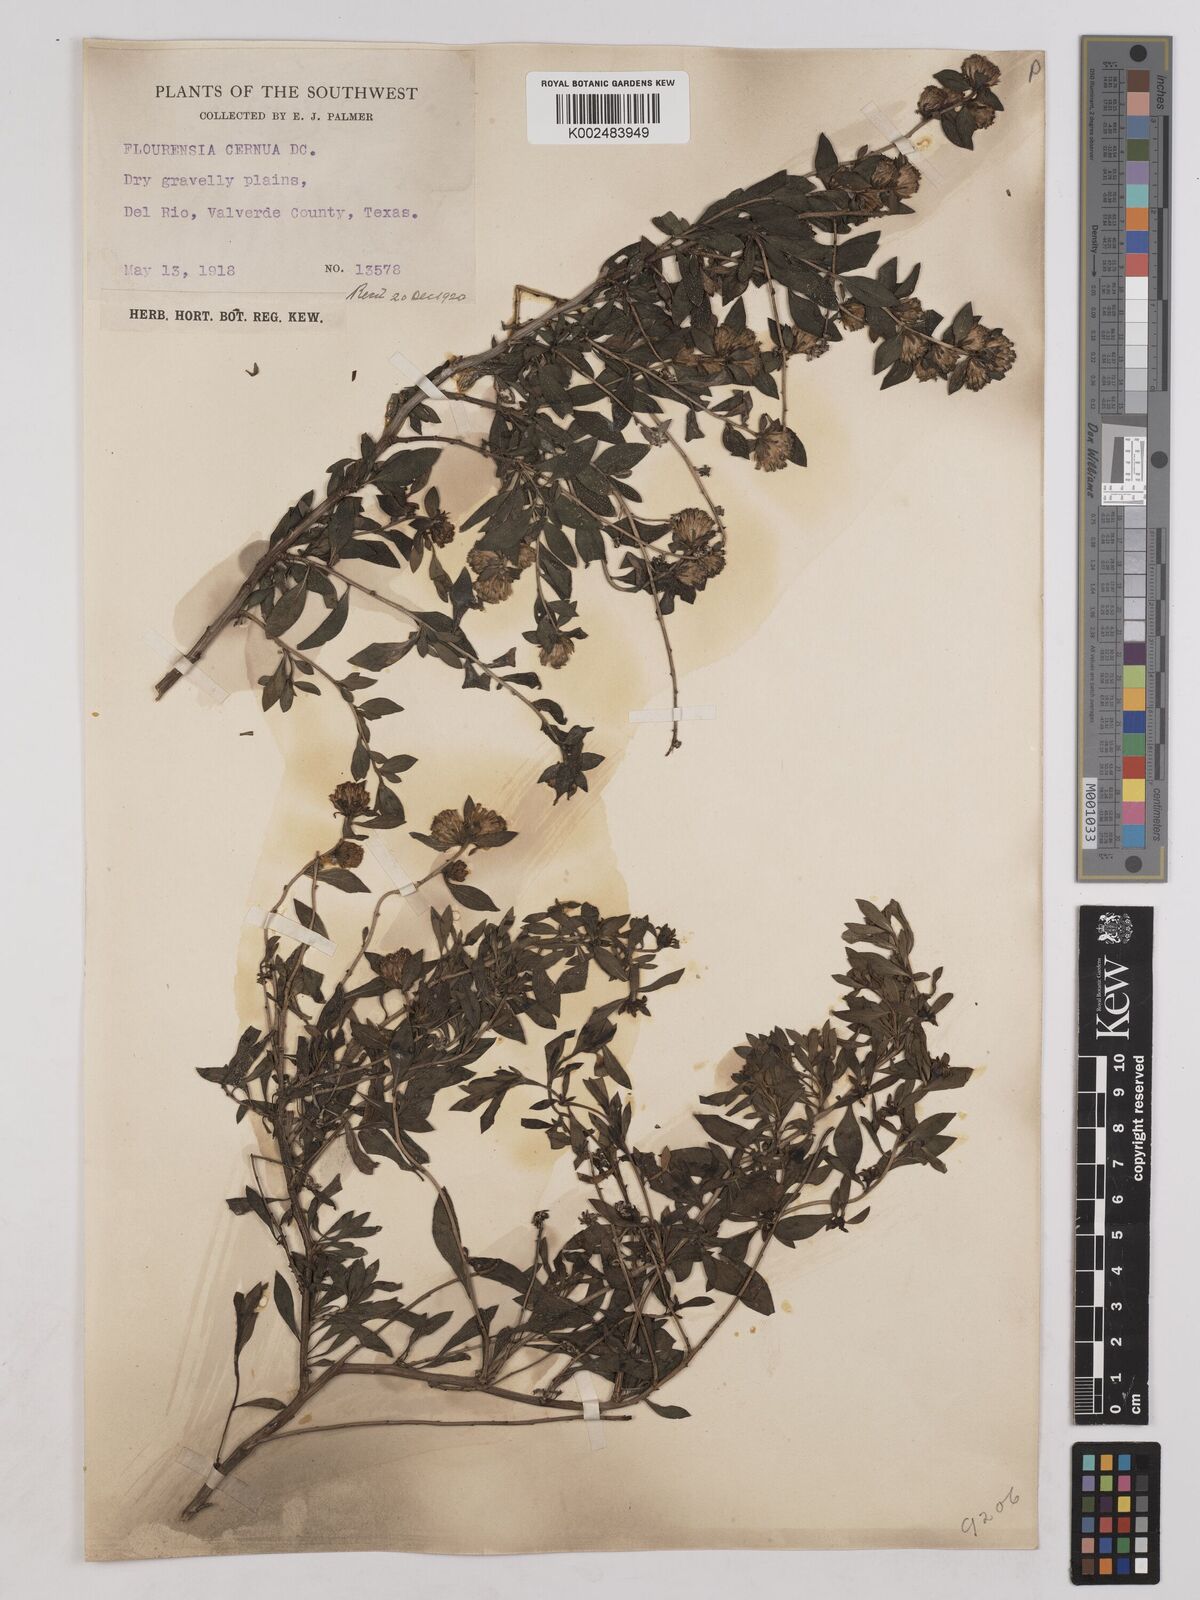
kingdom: Plantae
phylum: Tracheophyta
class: Magnoliopsida
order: Asterales
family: Asteraceae
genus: Flourensia
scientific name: Flourensia cernua
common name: Varnishbush
